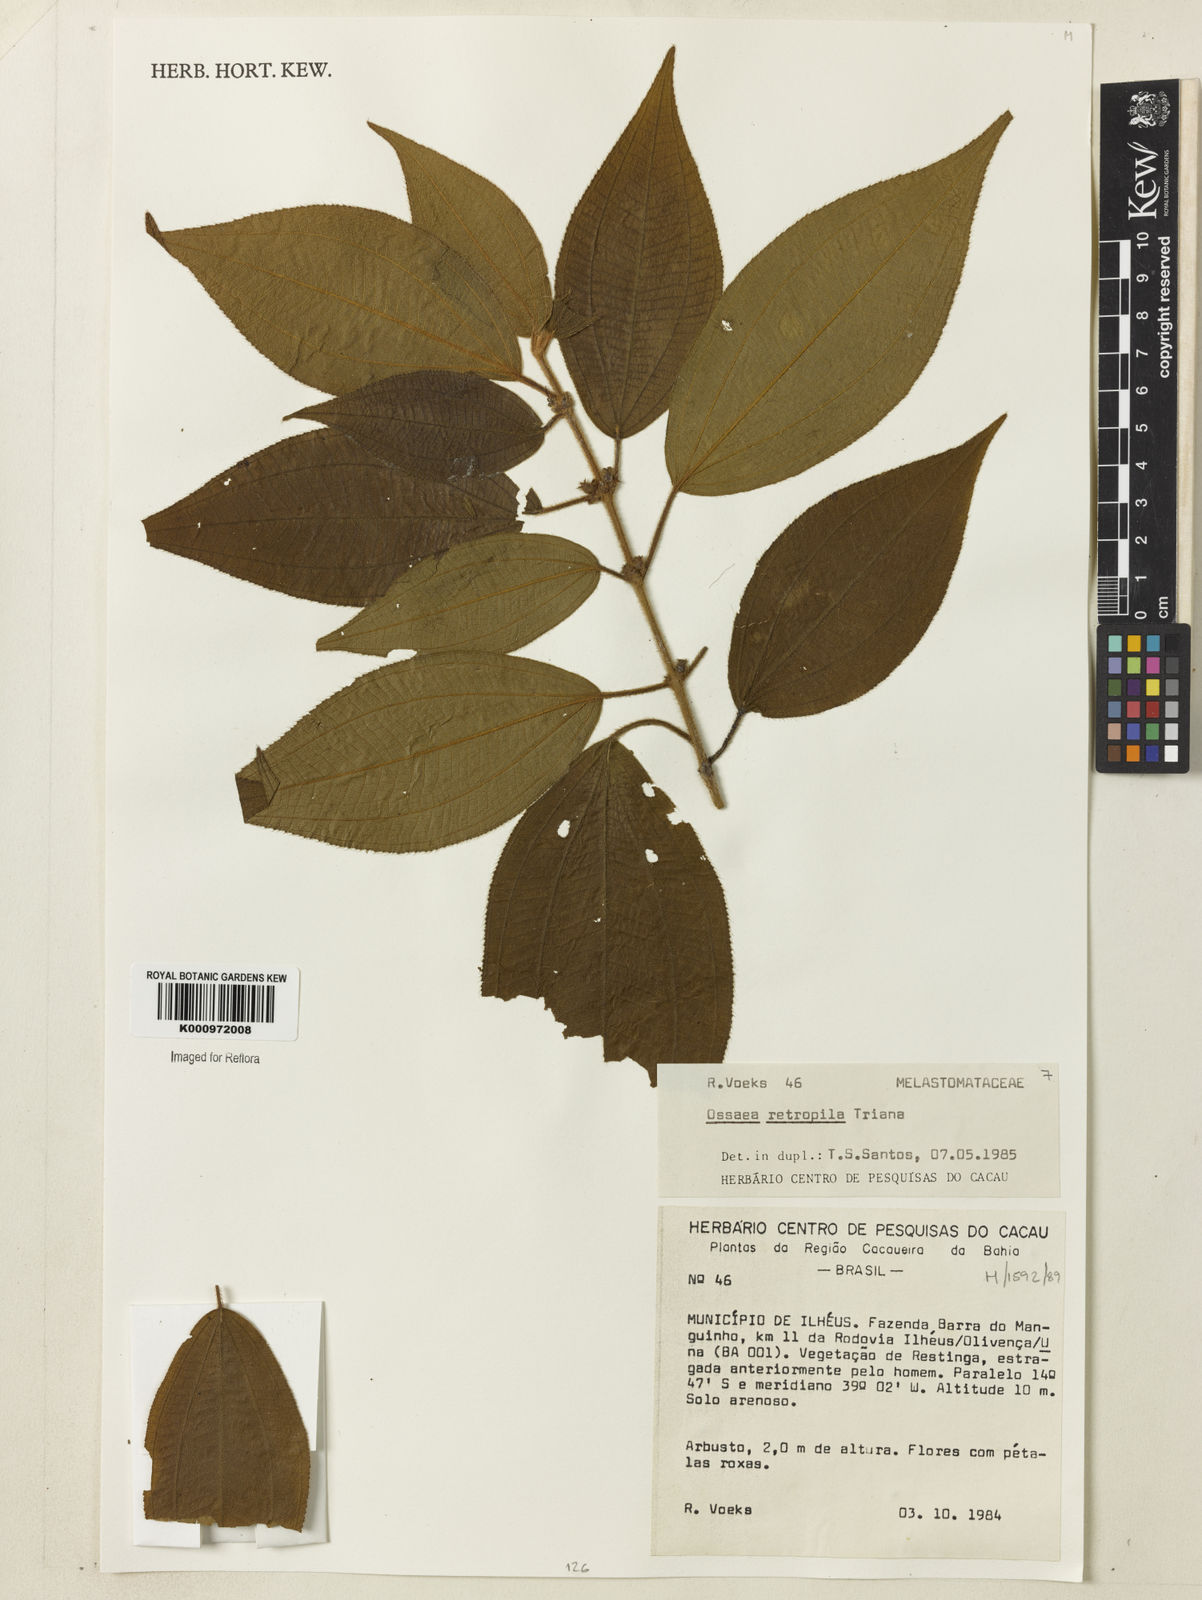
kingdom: Plantae
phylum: Tracheophyta
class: Magnoliopsida
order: Myrtales
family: Melastomataceae
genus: Miconia
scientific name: Miconia rubella
